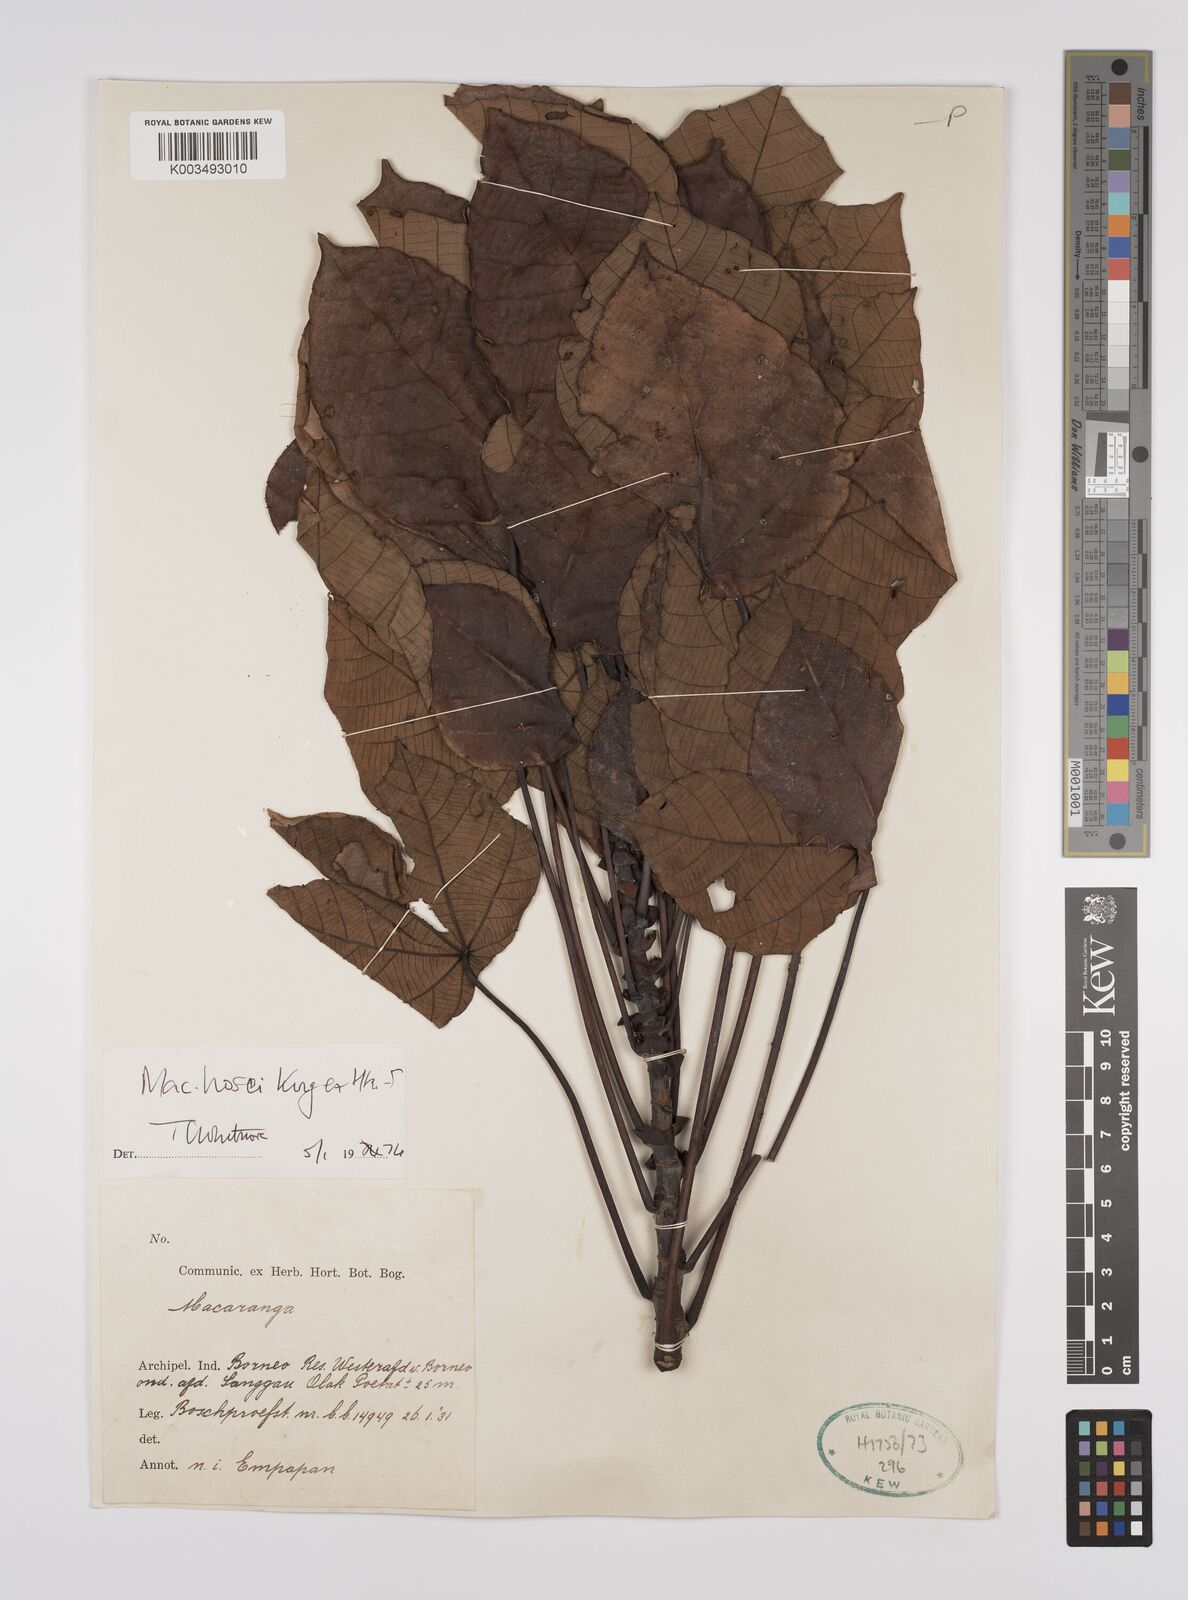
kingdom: Plantae
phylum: Tracheophyta
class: Magnoliopsida
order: Malpighiales
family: Euphorbiaceae
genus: Macaranga
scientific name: Macaranga hosei
